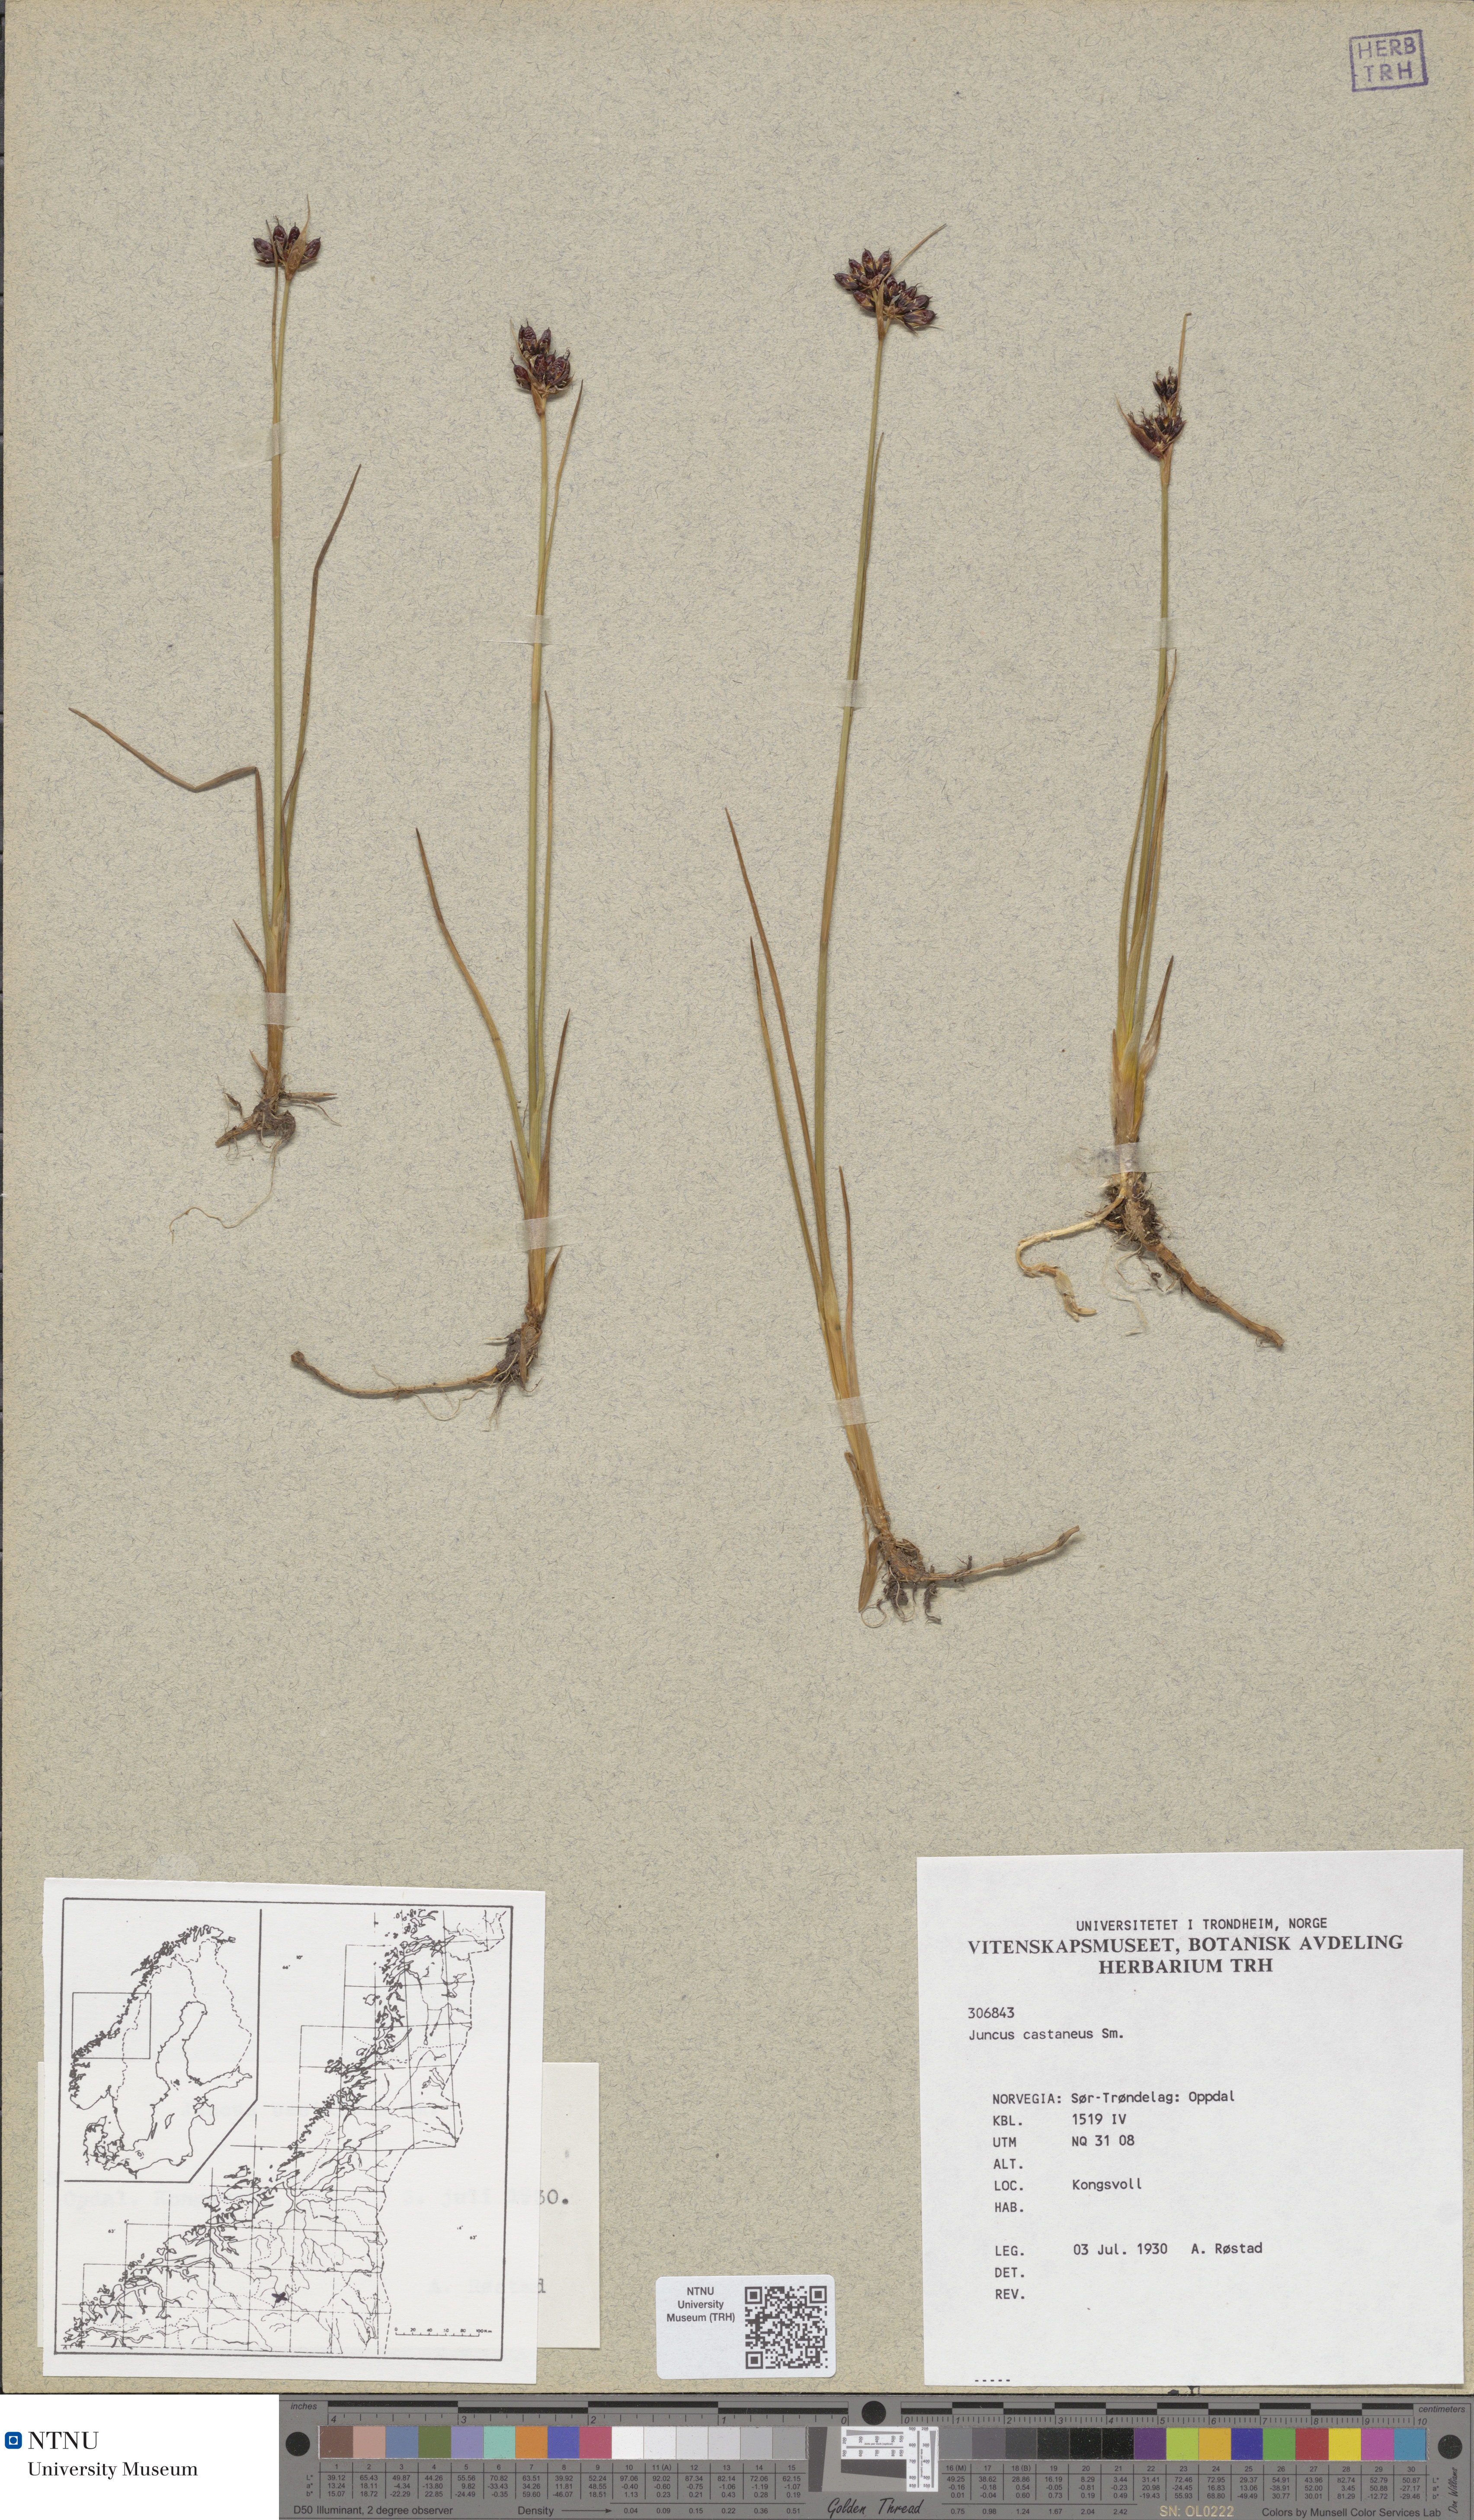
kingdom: Plantae
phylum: Tracheophyta
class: Liliopsida
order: Poales
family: Juncaceae
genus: Juncus
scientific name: Juncus castaneus
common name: Chestnut rush
